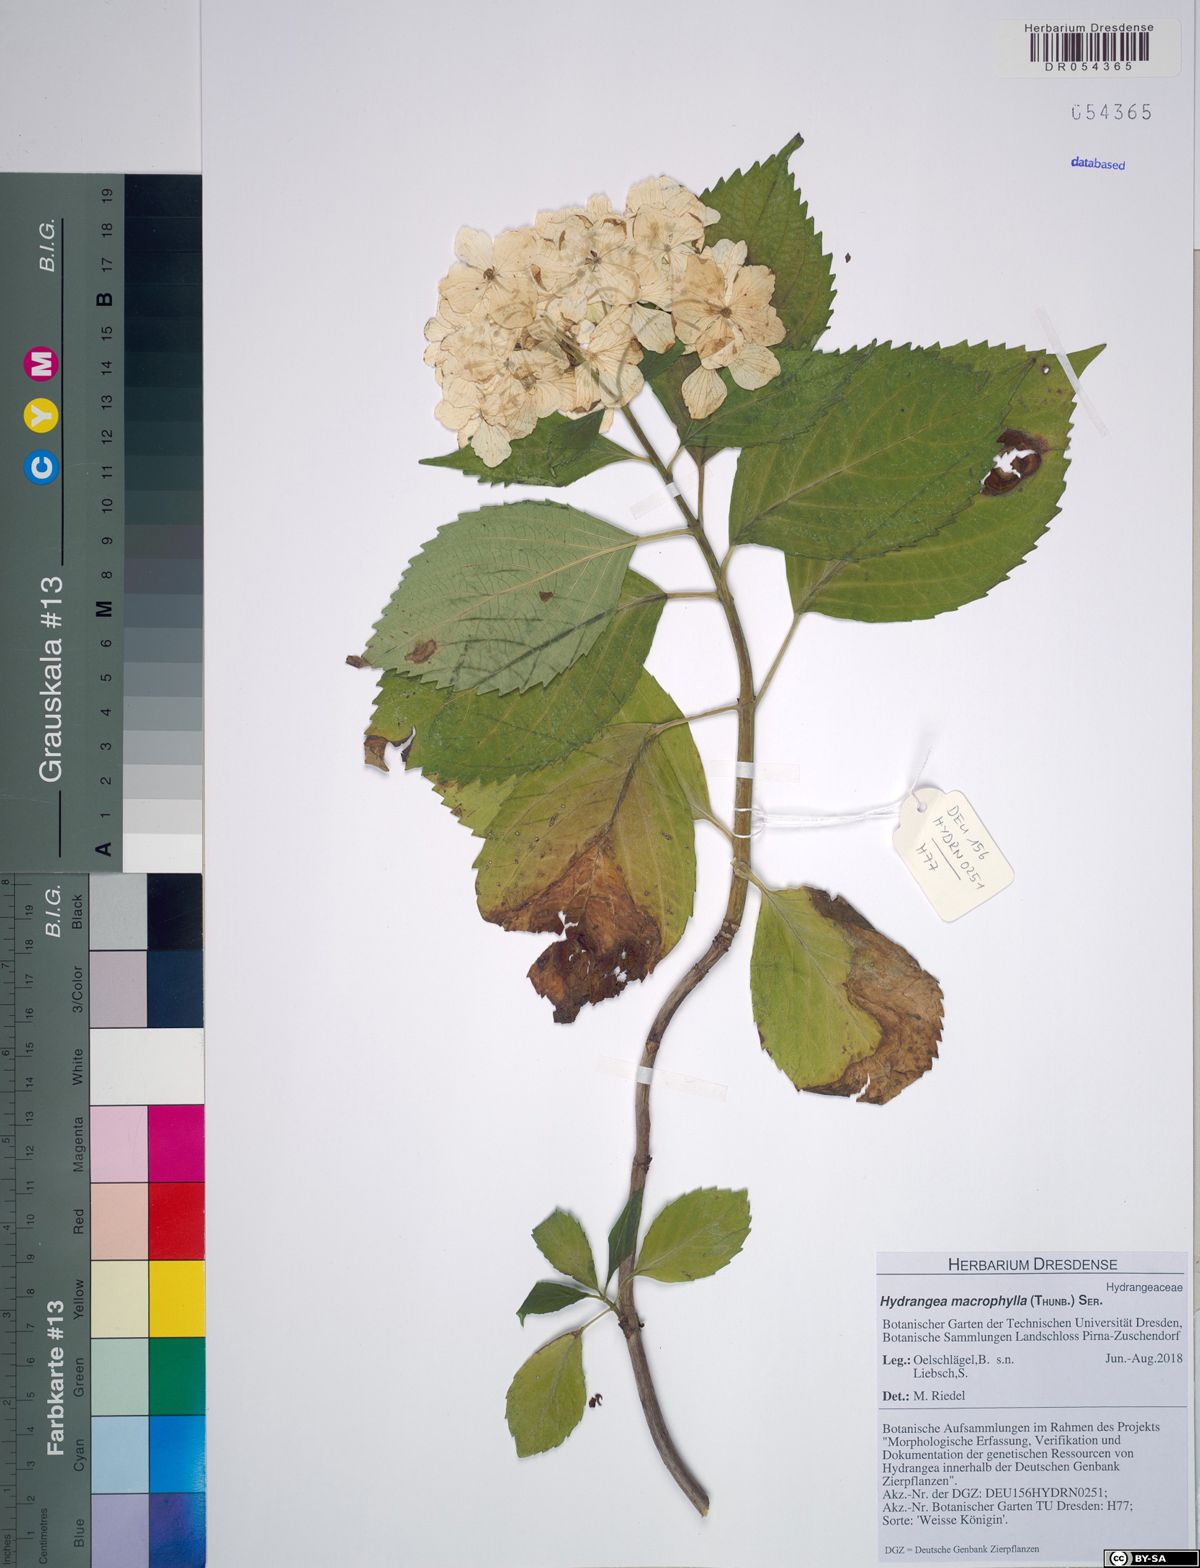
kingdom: Plantae
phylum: Tracheophyta
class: Magnoliopsida
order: Cornales
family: Hydrangeaceae
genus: Hydrangea
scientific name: Hydrangea macrophylla
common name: Hydrangea
